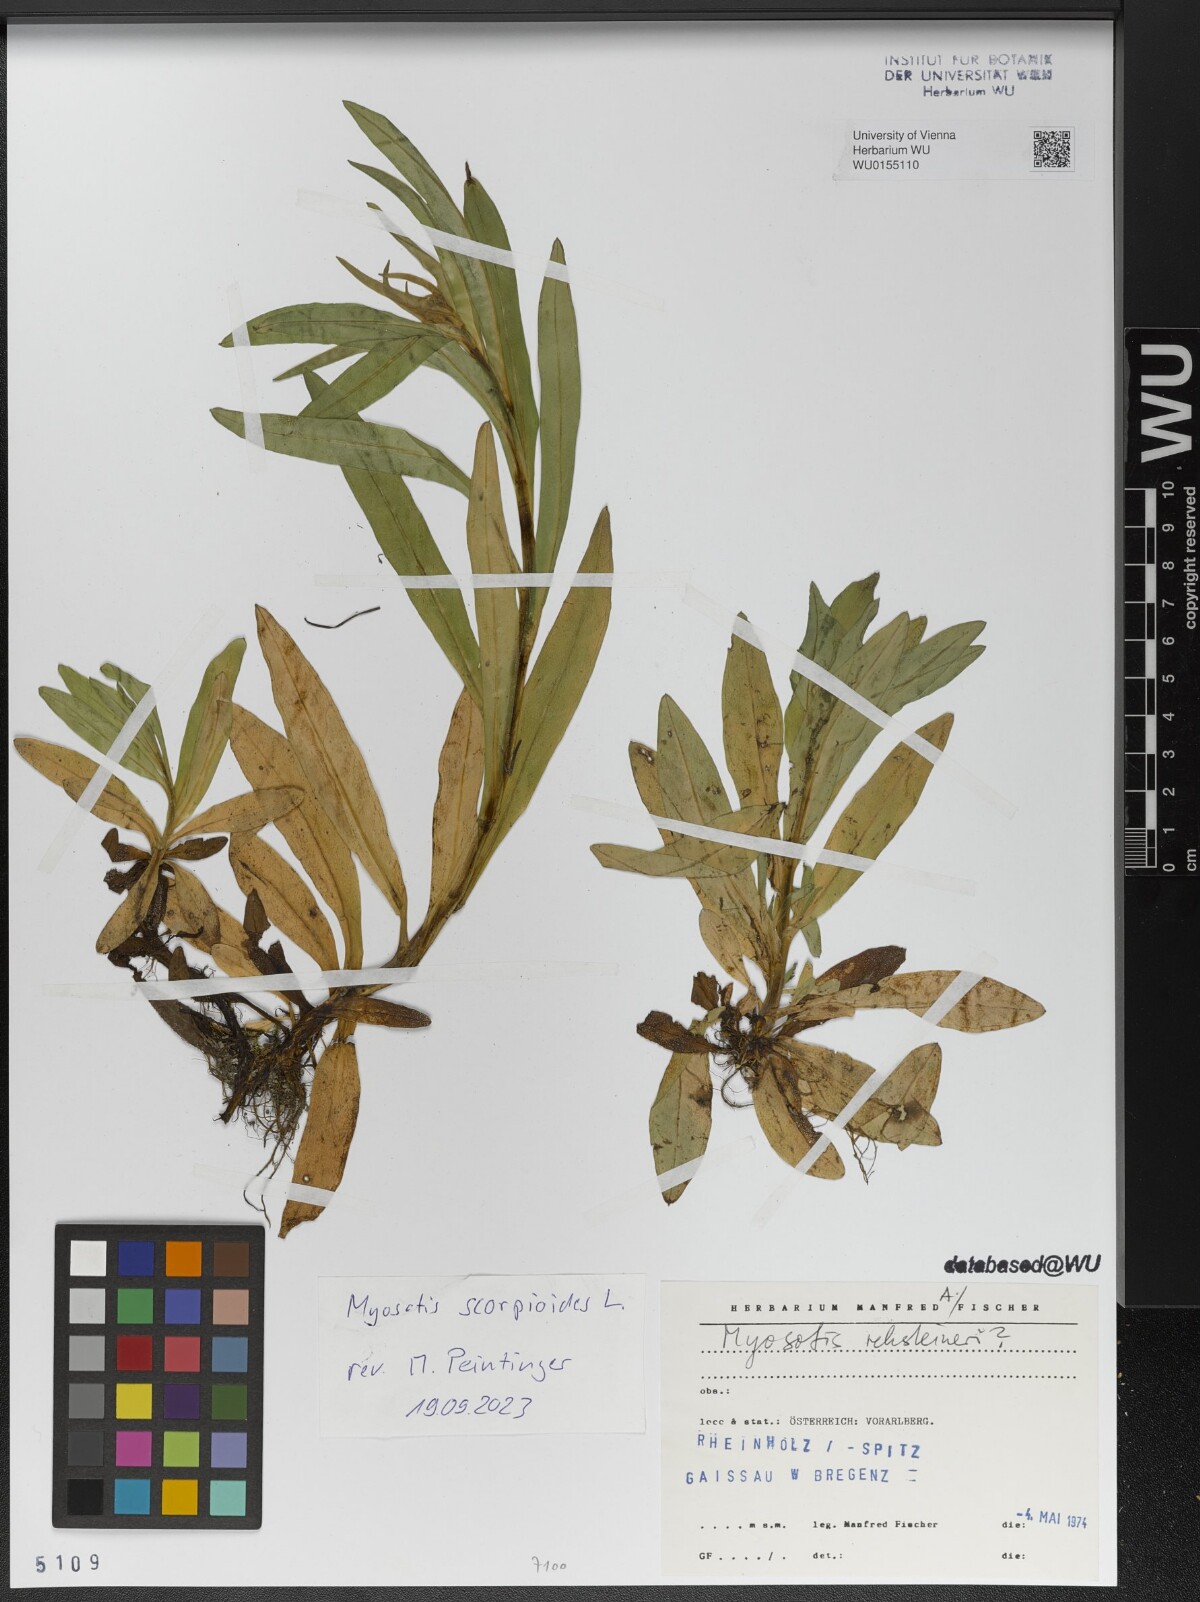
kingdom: Plantae
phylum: Tracheophyta
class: Magnoliopsida
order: Boraginales
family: Boraginaceae
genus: Myosotis
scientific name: Myosotis scorpioides
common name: Water forget-me-not
